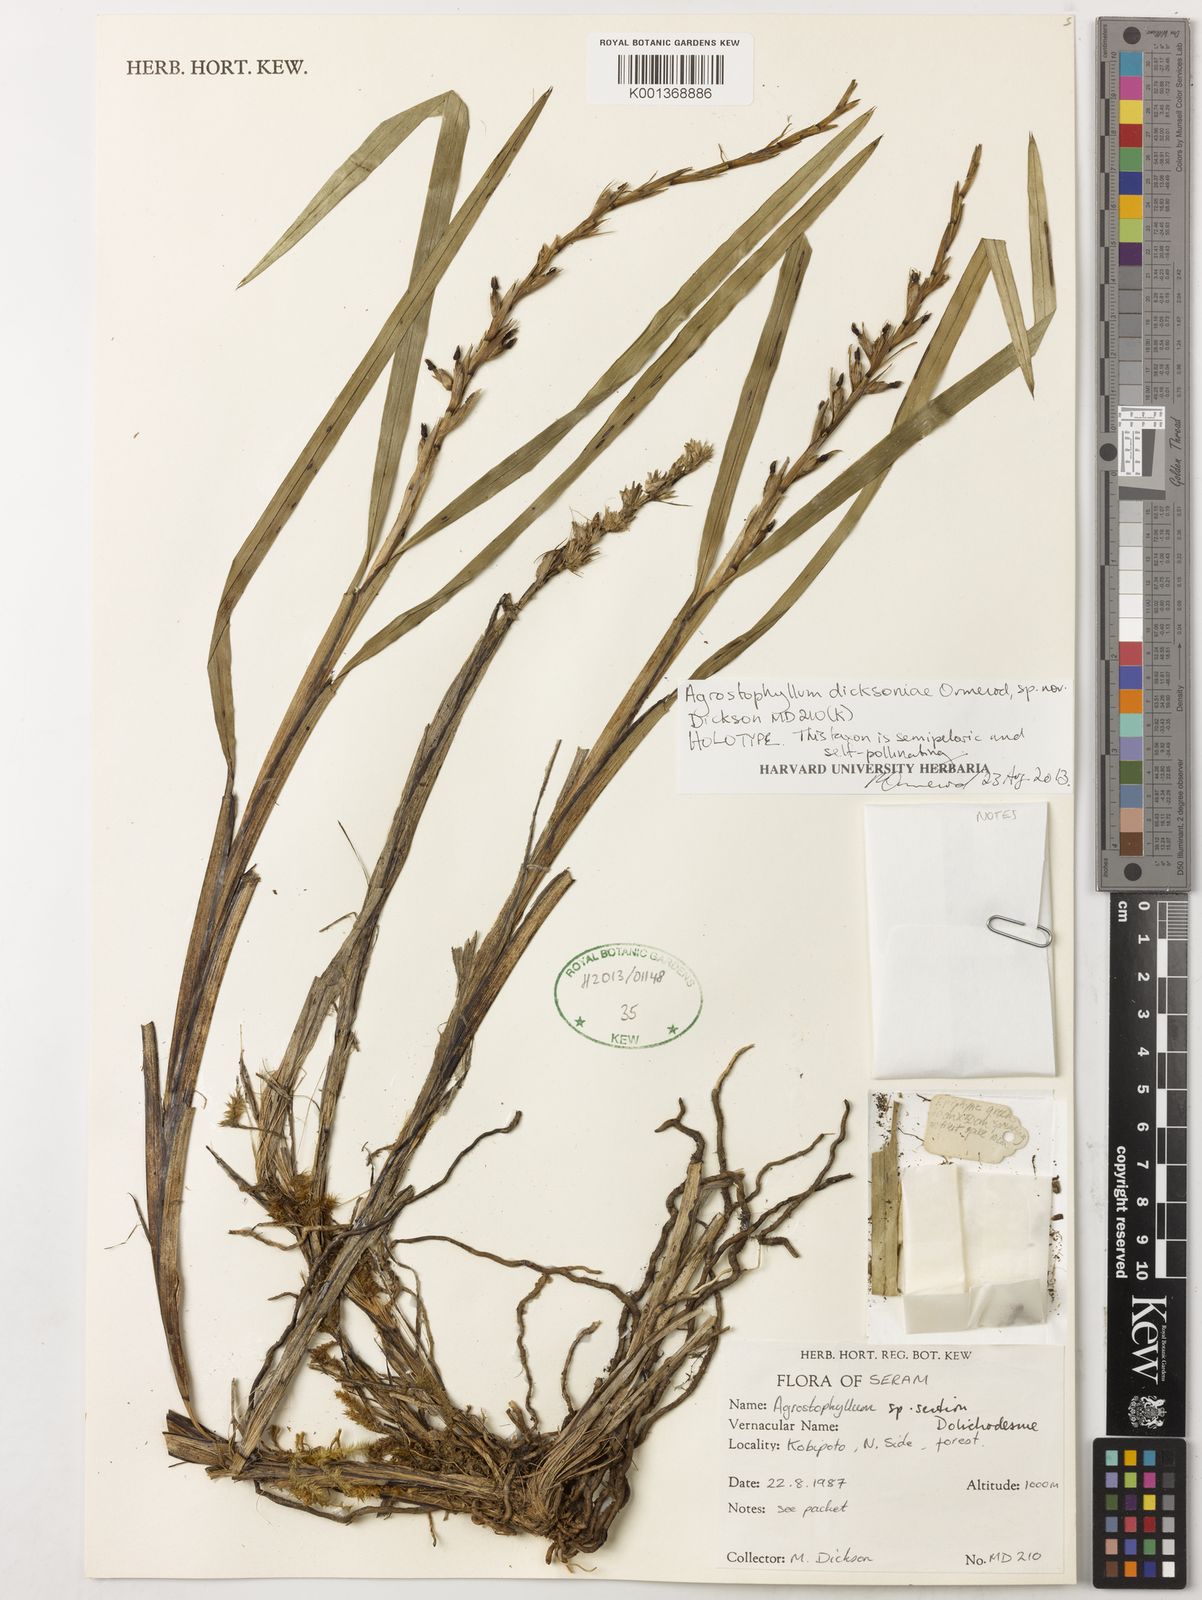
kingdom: Plantae
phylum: Tracheophyta
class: Liliopsida
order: Asparagales
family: Orchidaceae
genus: Agrostophyllum
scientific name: Agrostophyllum dicksoniae
